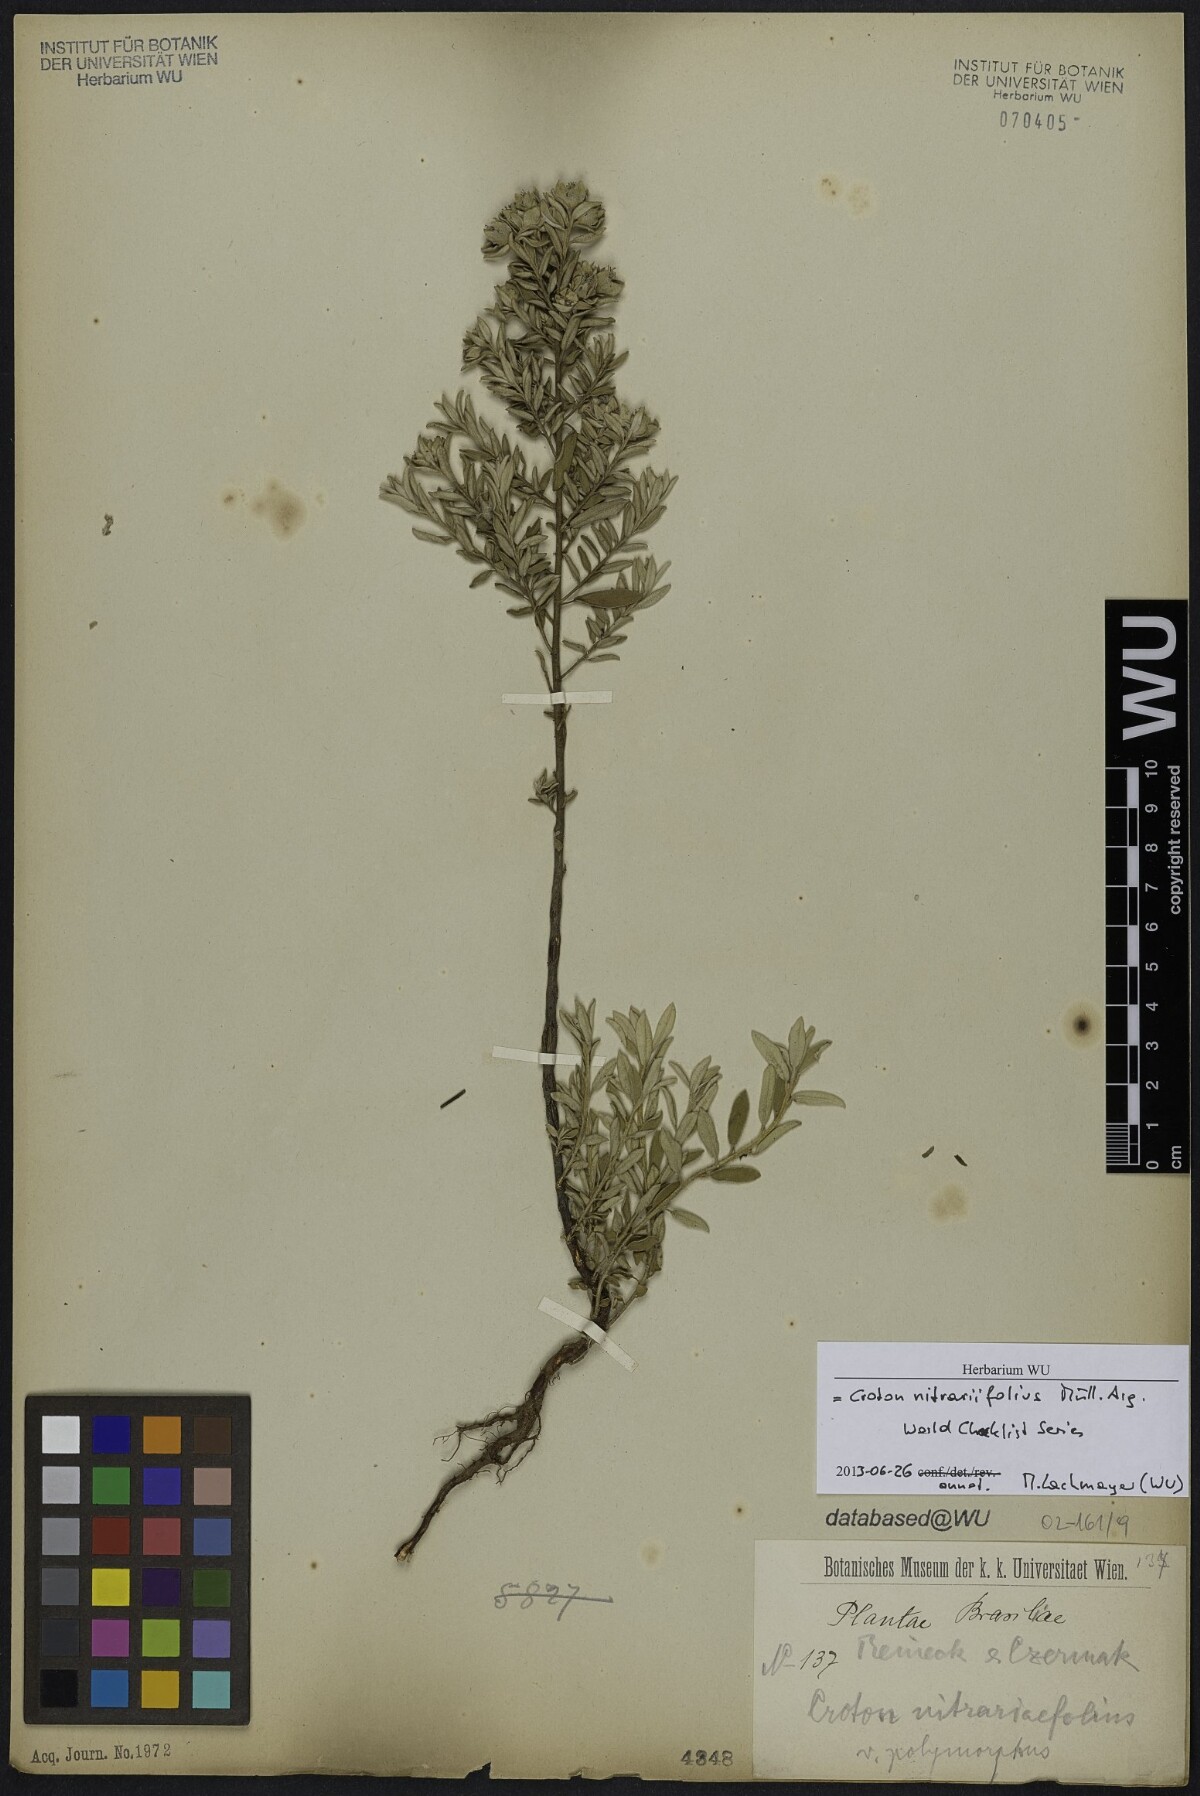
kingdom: Plantae
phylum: Tracheophyta
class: Magnoliopsida
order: Malpighiales
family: Euphorbiaceae
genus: Croton
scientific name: Croton nitrariaefolius
